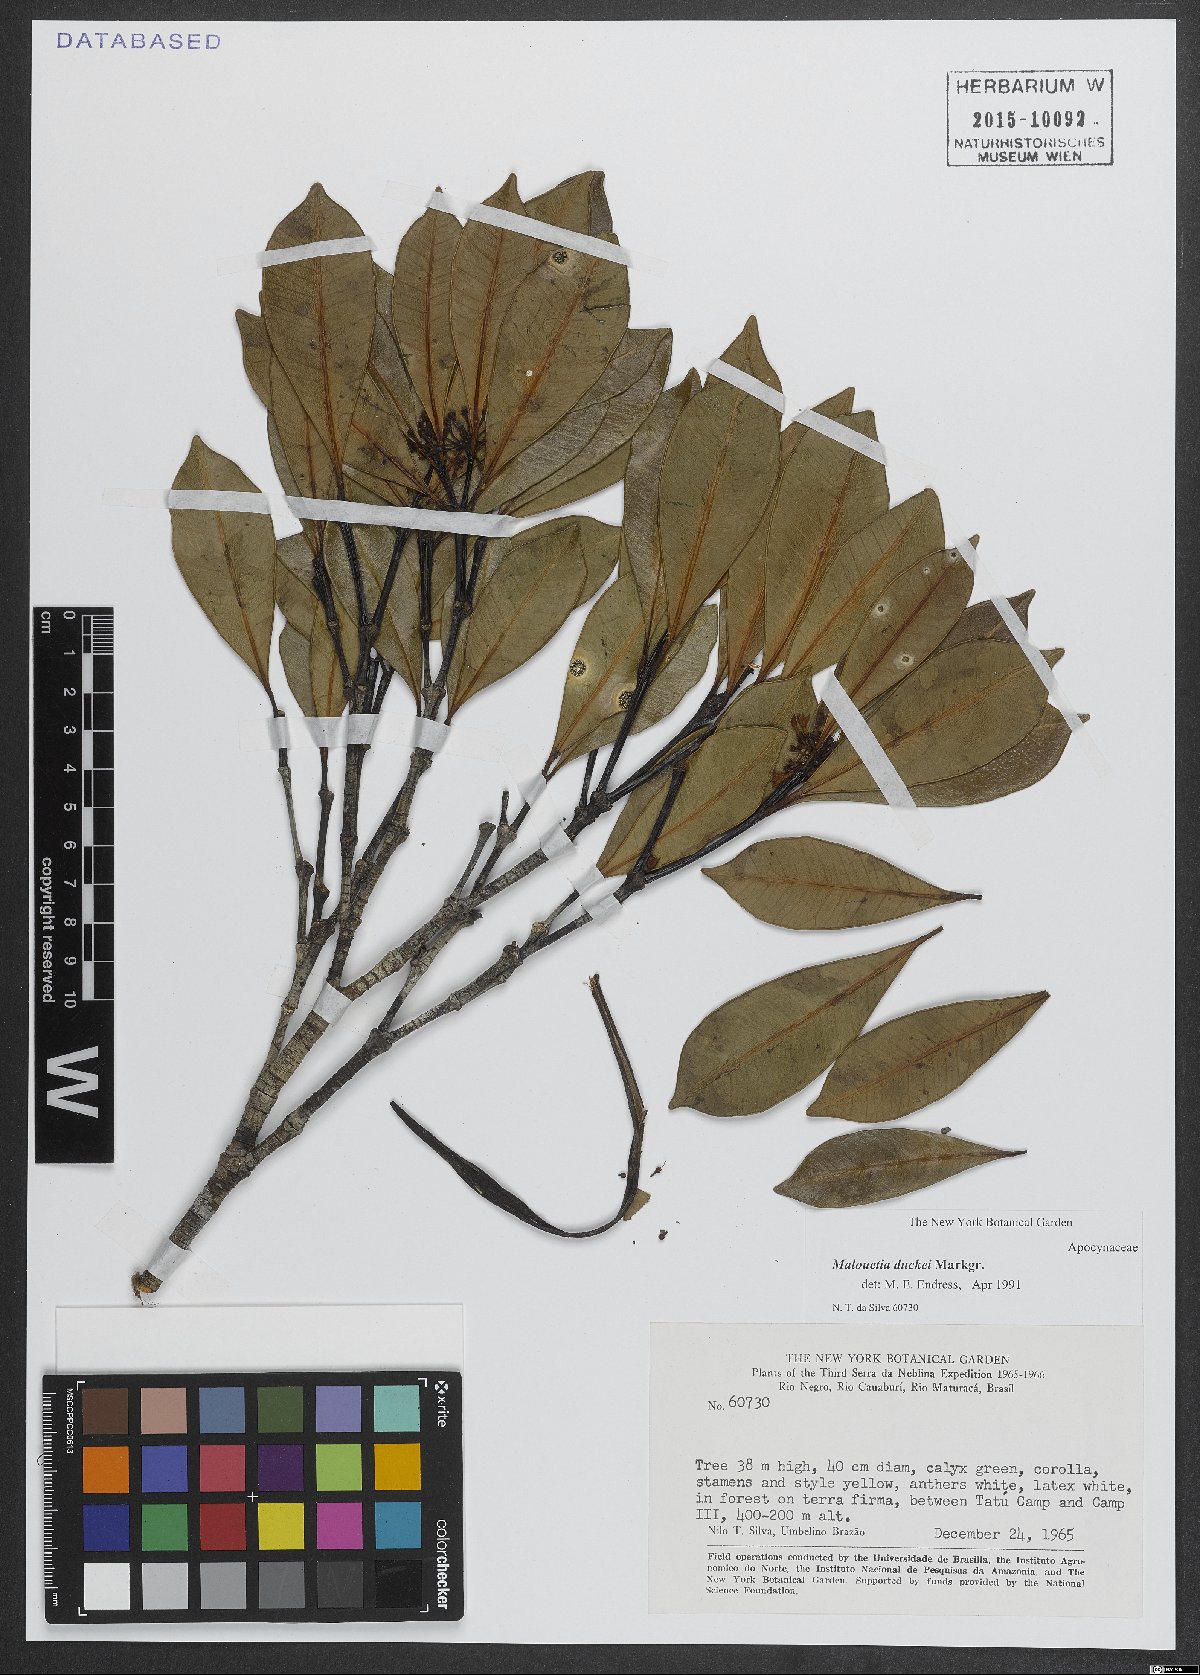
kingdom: Plantae
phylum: Tracheophyta
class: Magnoliopsida
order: Gentianales
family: Apocynaceae
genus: Malouetia
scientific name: Malouetia duckei
